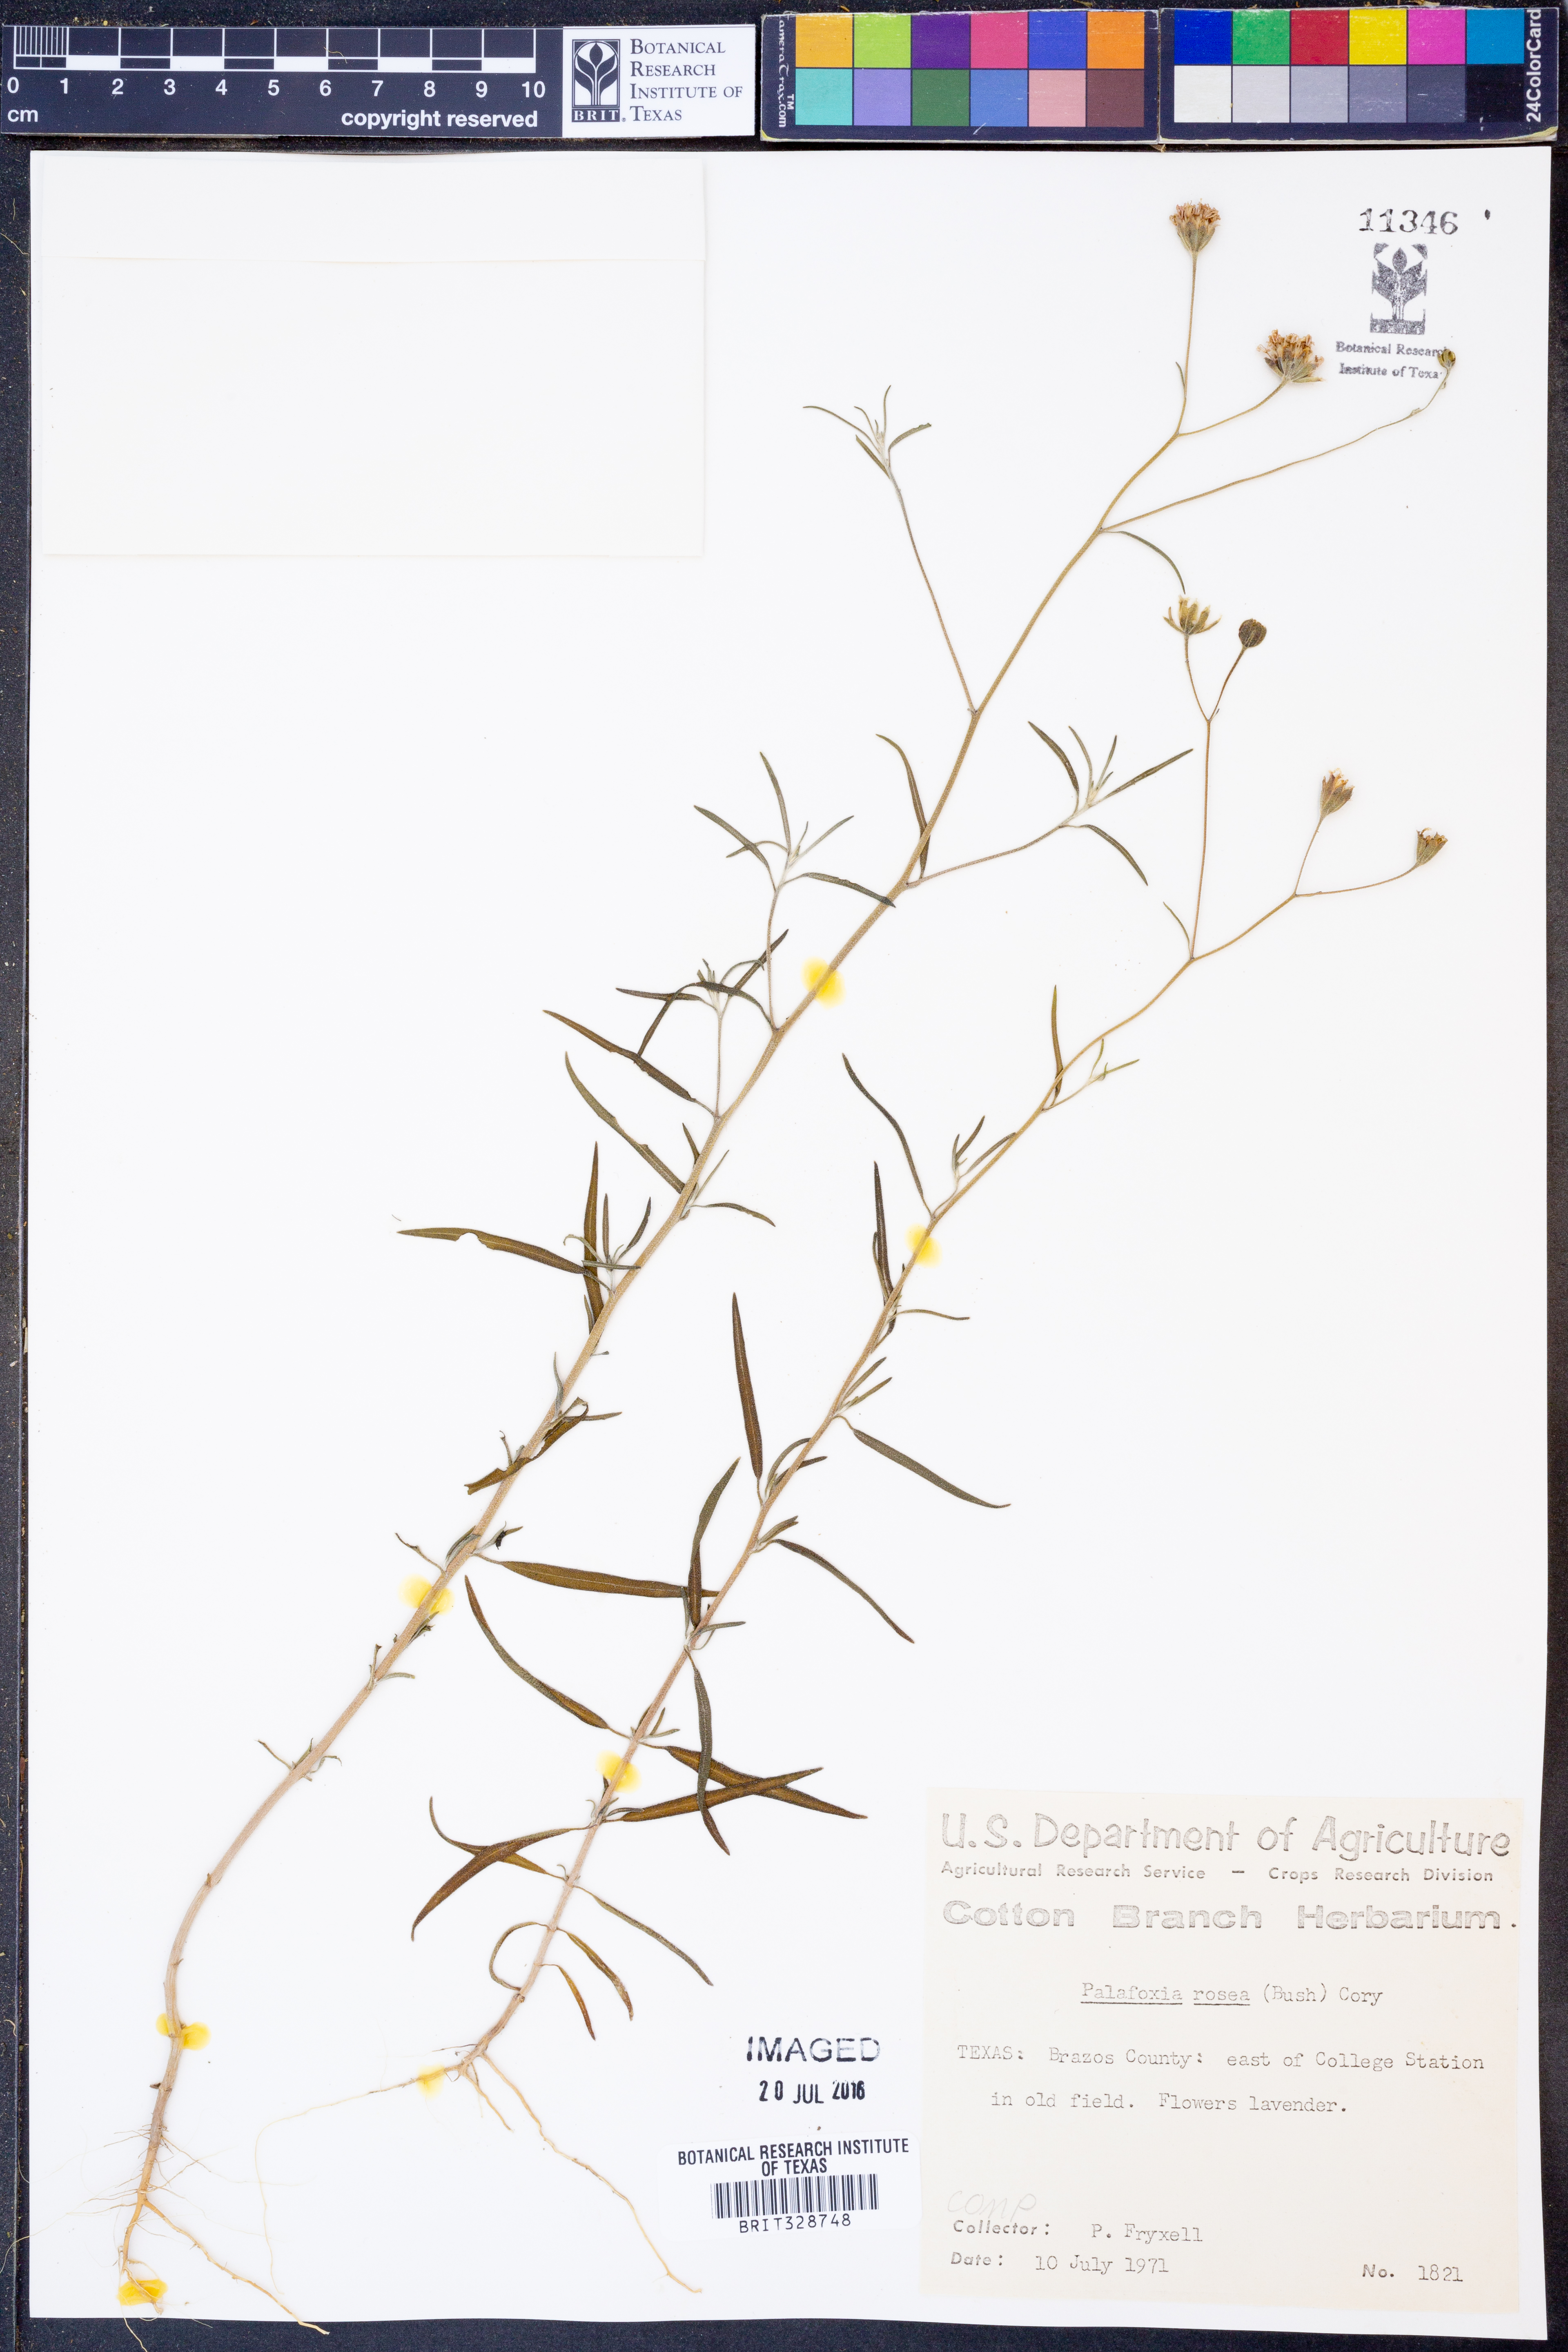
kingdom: Plantae
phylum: Tracheophyta
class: Magnoliopsida
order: Asterales
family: Asteraceae
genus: Palafoxia
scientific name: Palafoxia rosea
